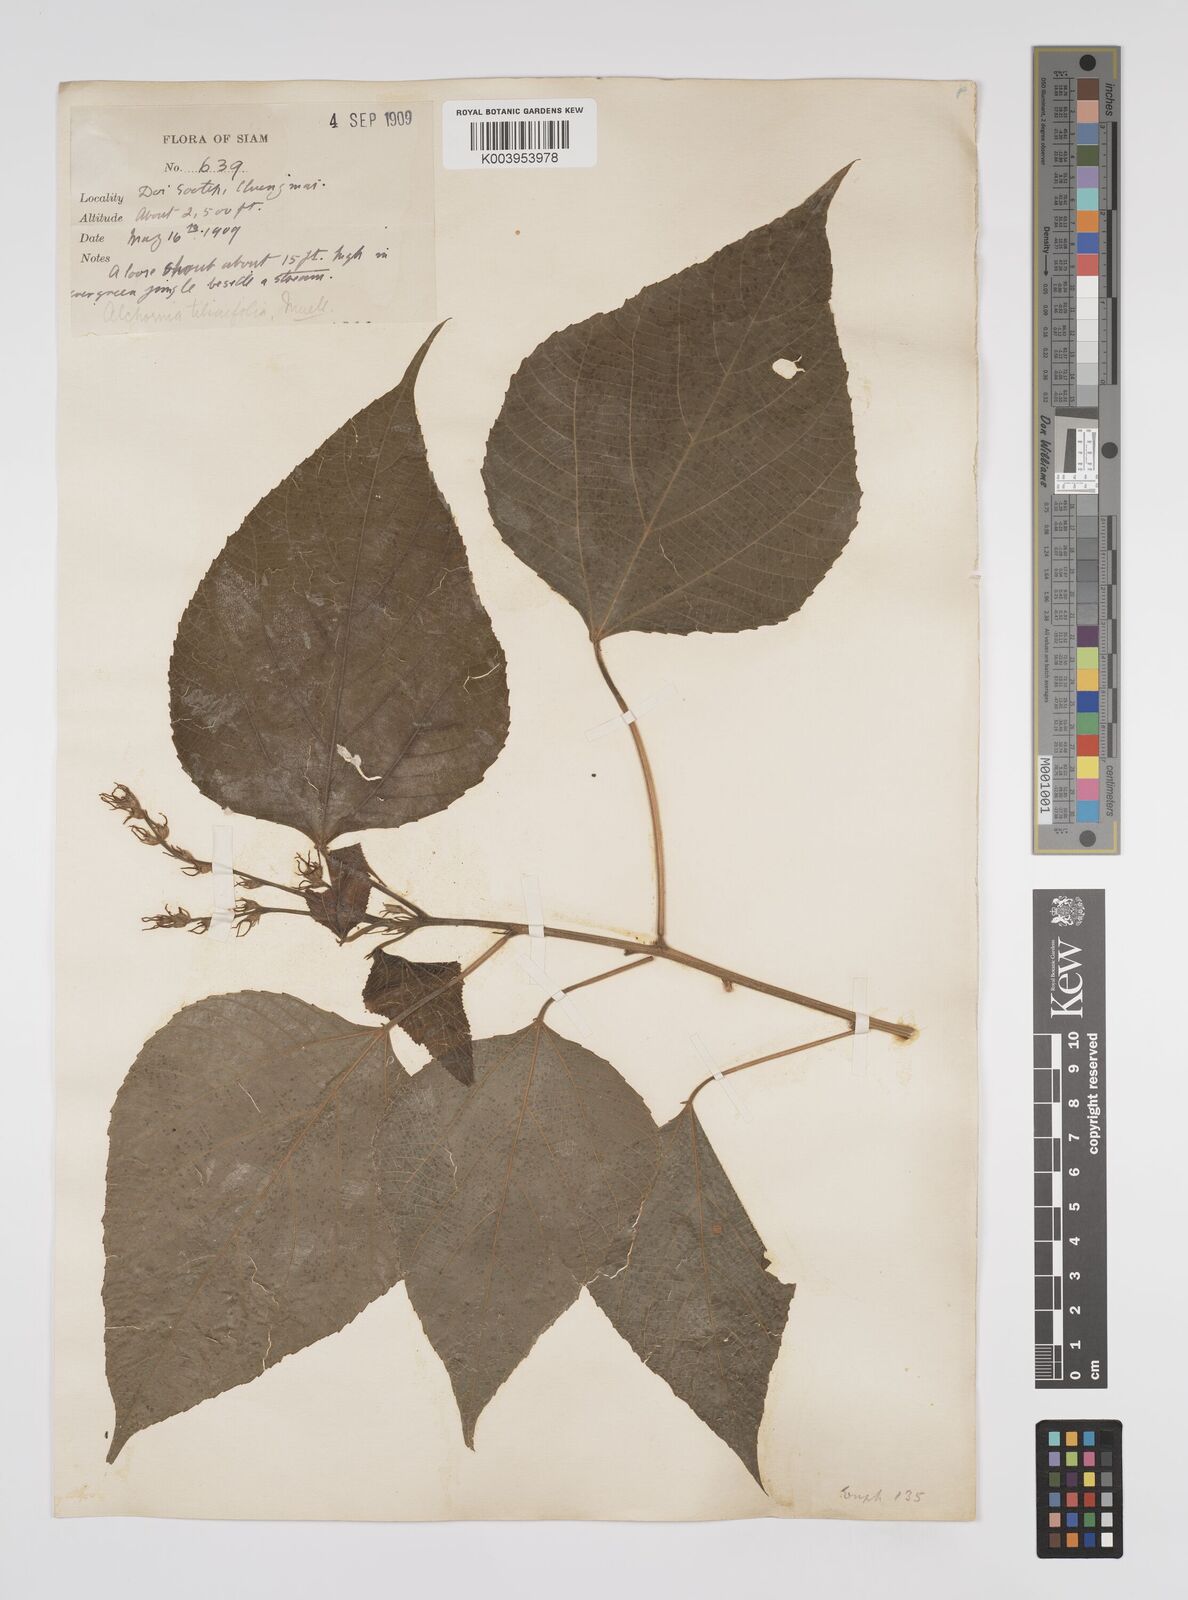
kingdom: Plantae
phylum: Tracheophyta
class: Magnoliopsida
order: Malpighiales
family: Euphorbiaceae
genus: Alchornea
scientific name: Alchornea tiliifolia
